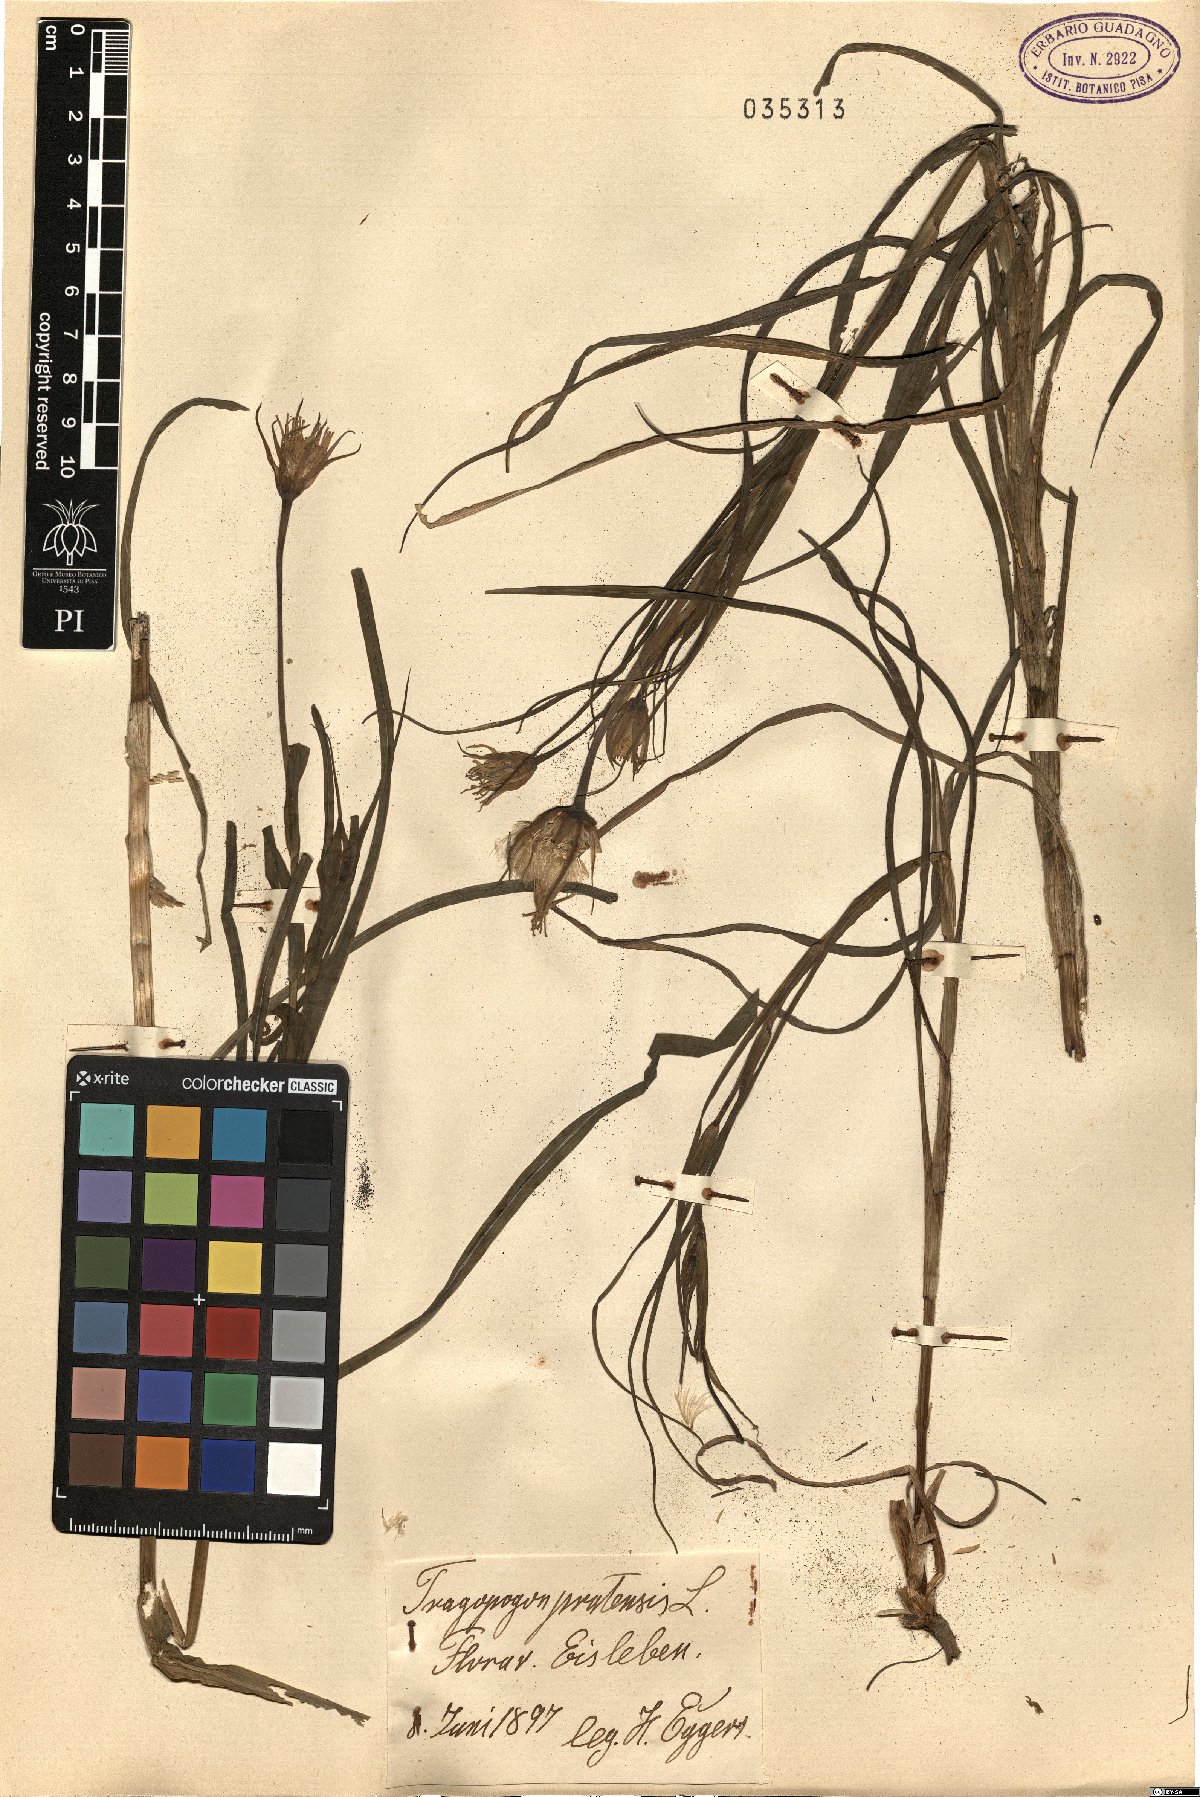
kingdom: Plantae
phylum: Tracheophyta
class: Magnoliopsida
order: Asterales
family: Asteraceae
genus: Tragopogon
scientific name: Tragopogon pratensis
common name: Goat's-beard
